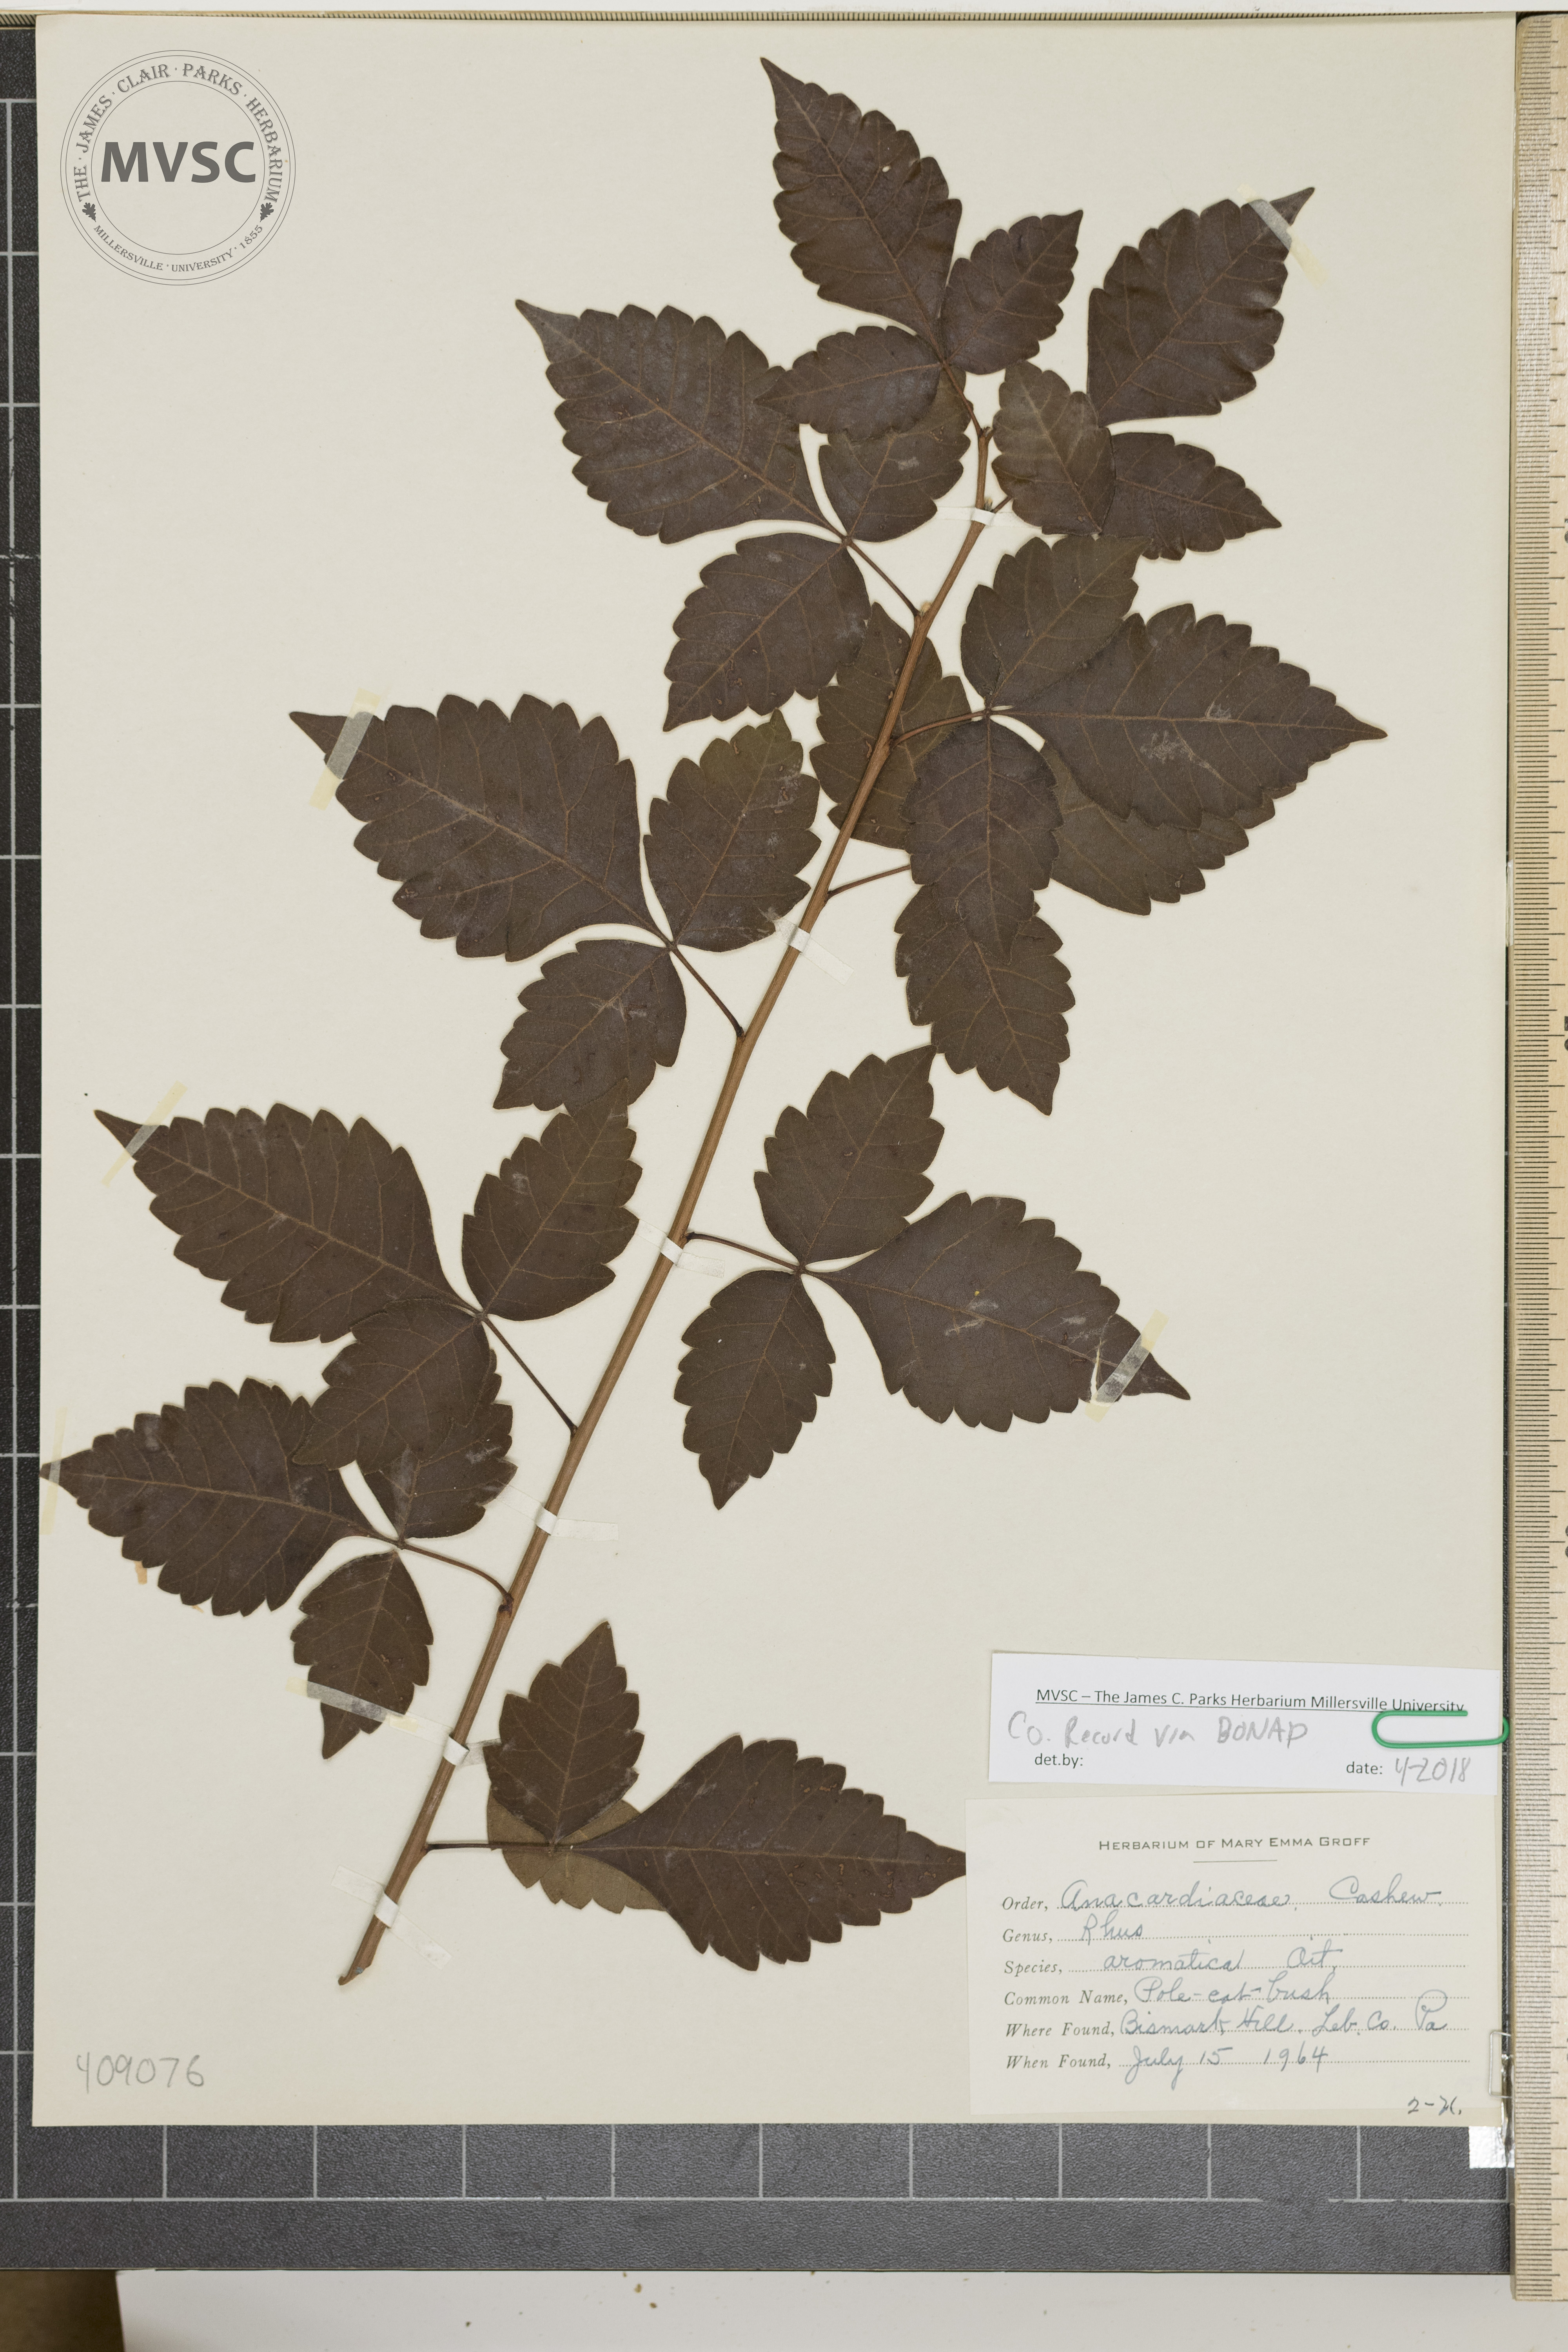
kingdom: Plantae
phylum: Tracheophyta
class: Magnoliopsida
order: Sapindales
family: Anacardiaceae
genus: Rhus
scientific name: Rhus aromatica
